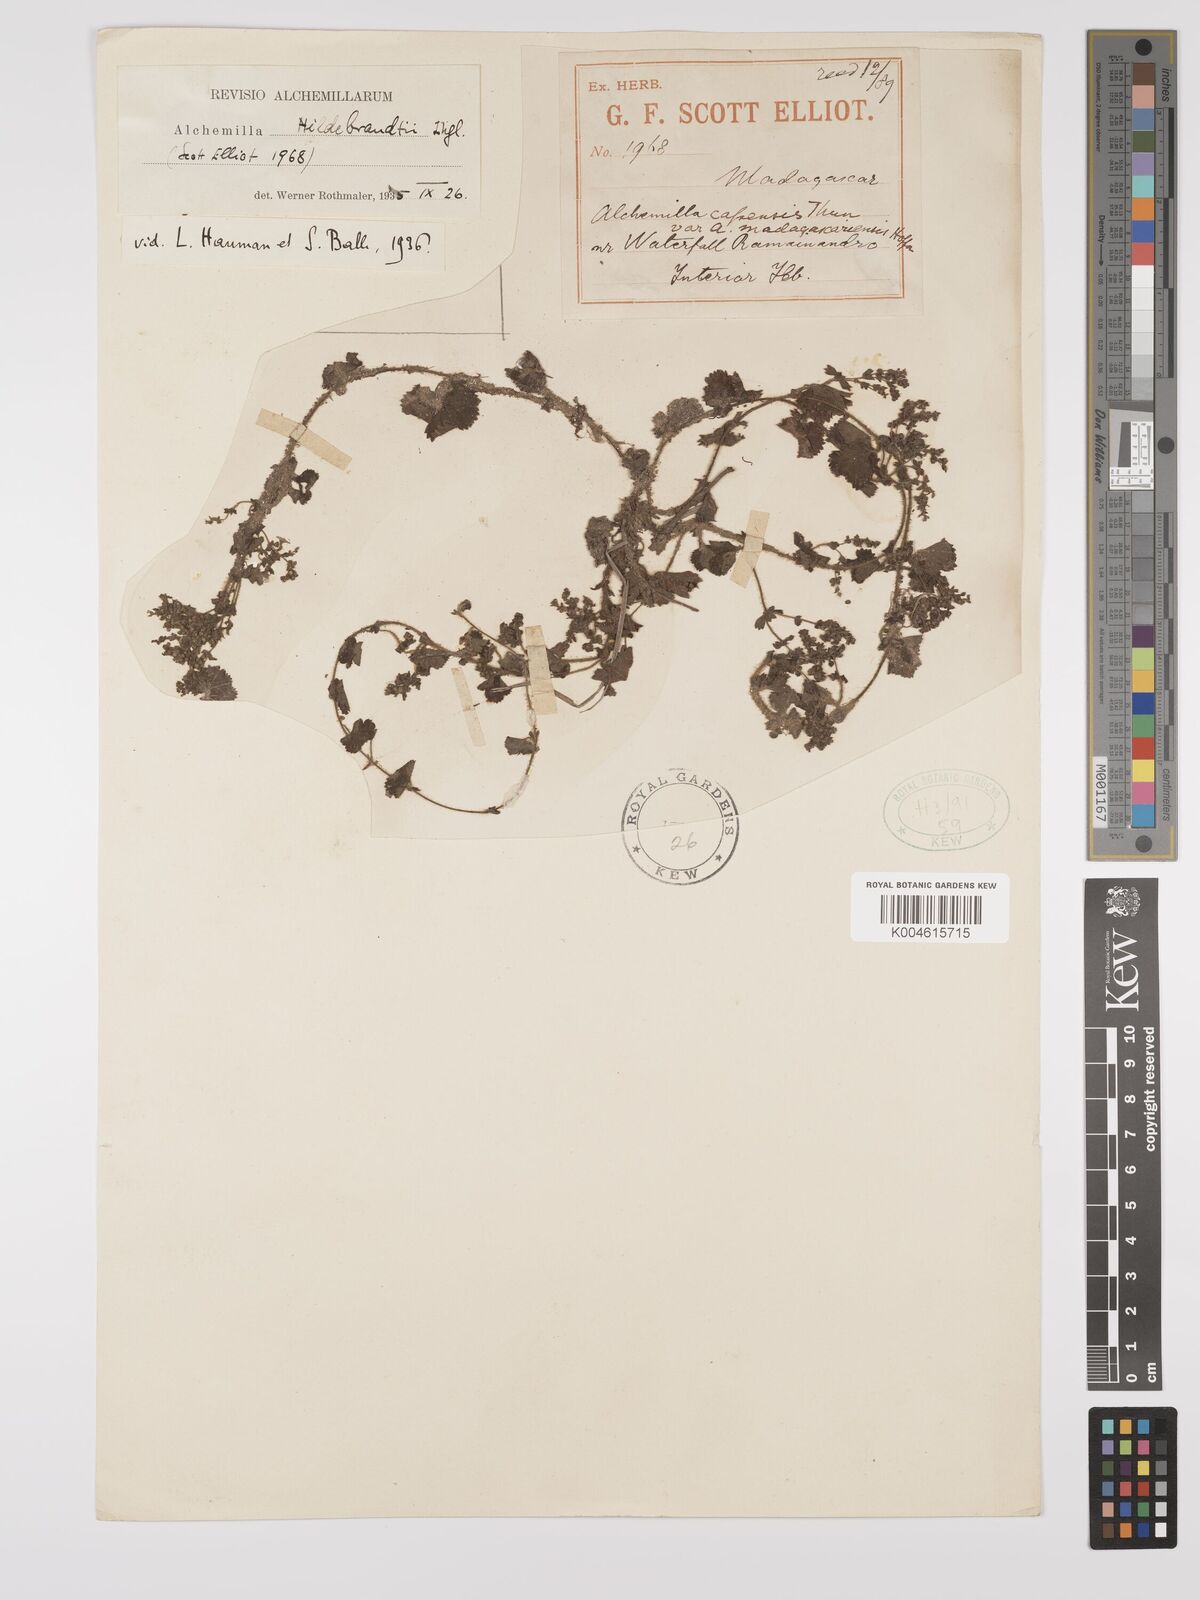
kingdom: Plantae
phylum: Tracheophyta
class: Magnoliopsida
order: Rosales
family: Rosaceae
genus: Alchemilla
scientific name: Alchemilla schizophylla
